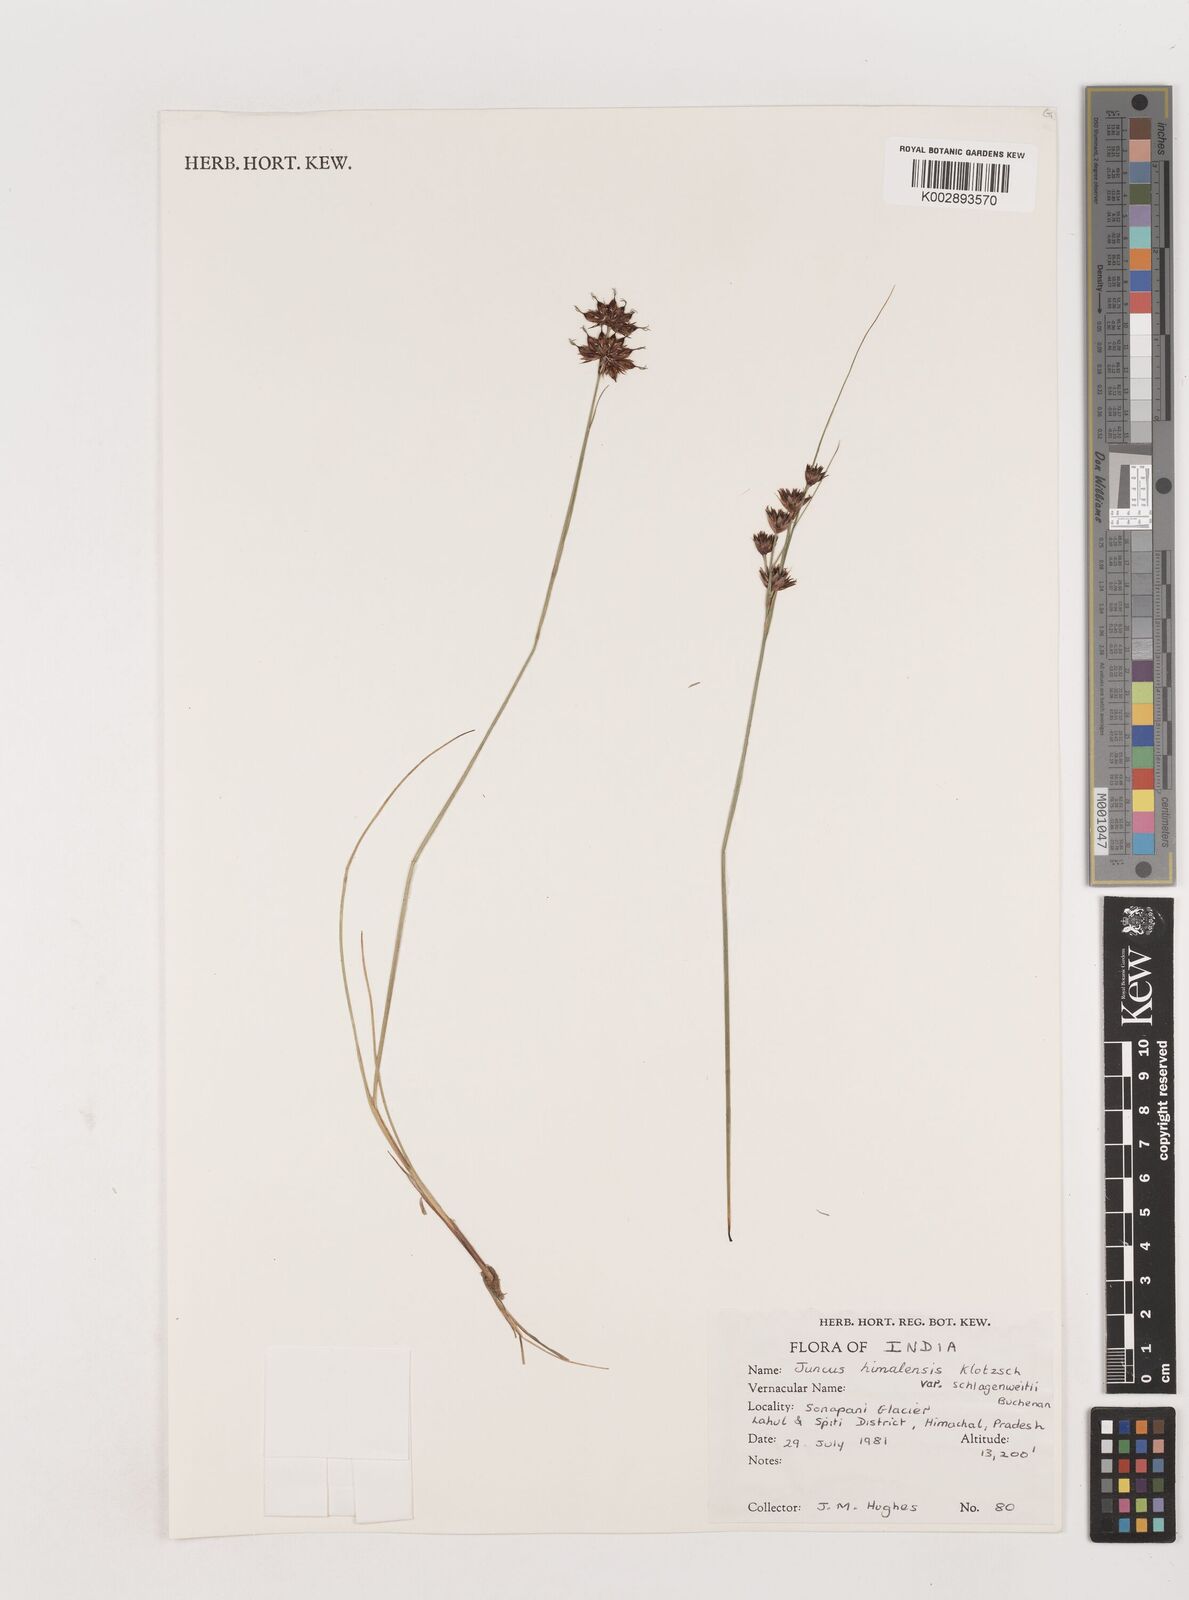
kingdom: Plantae
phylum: Tracheophyta
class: Liliopsida
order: Poales
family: Juncaceae
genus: Juncus
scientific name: Juncus himalensis
